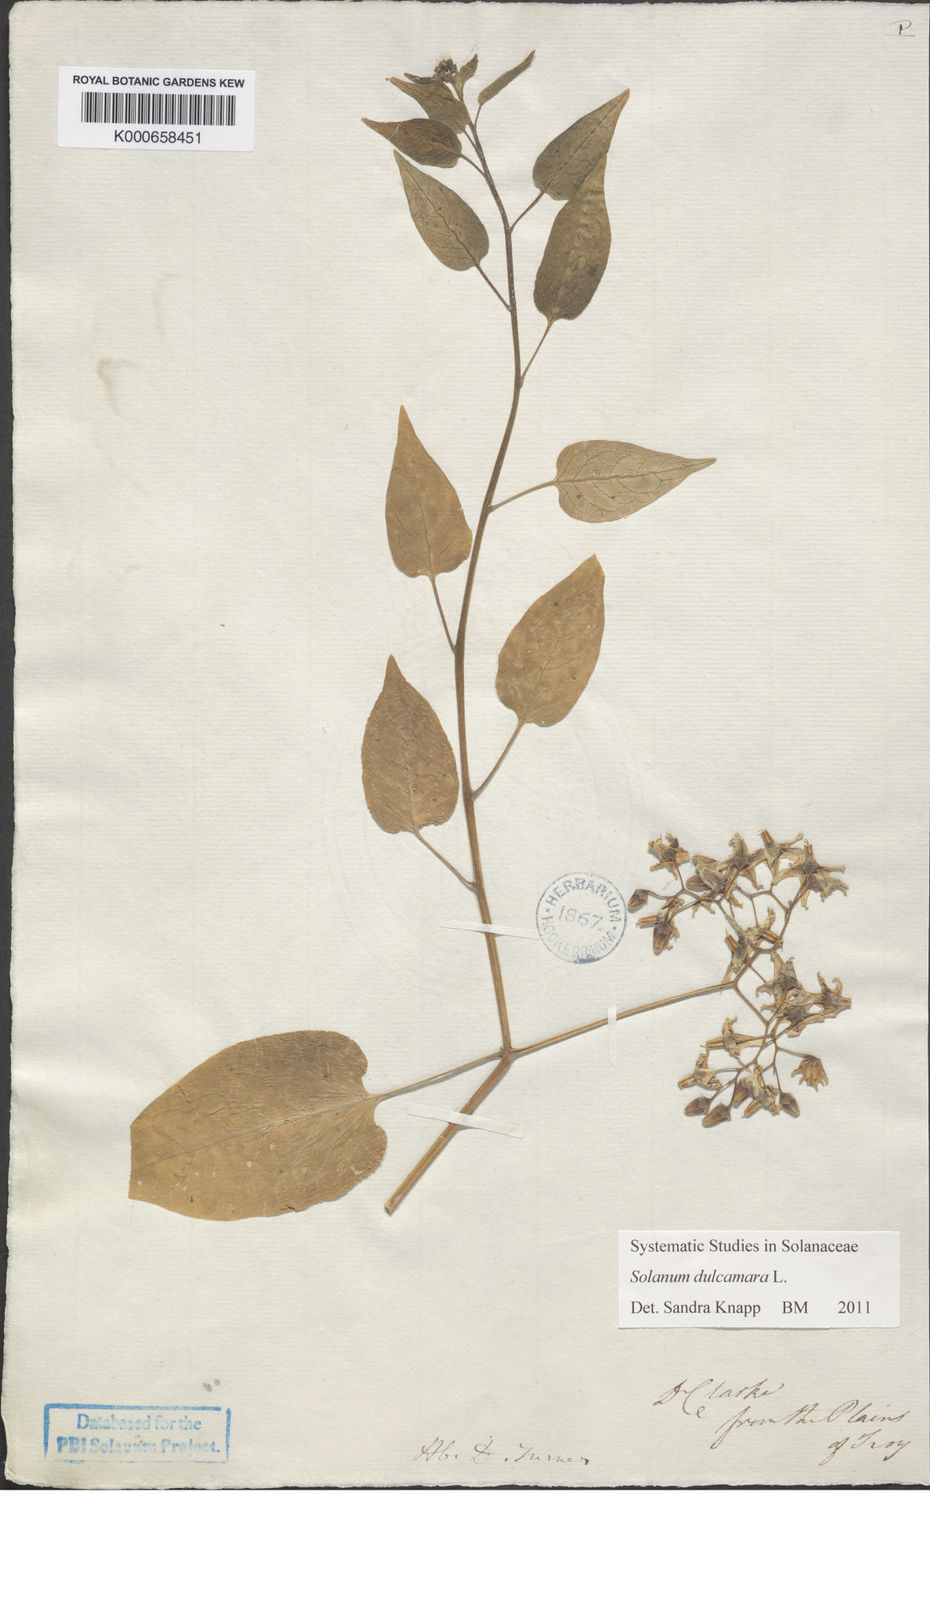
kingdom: Plantae
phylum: Tracheophyta
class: Magnoliopsida
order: Solanales
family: Solanaceae
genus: Solanum
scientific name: Solanum dulcamara
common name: Climbing nightshade
